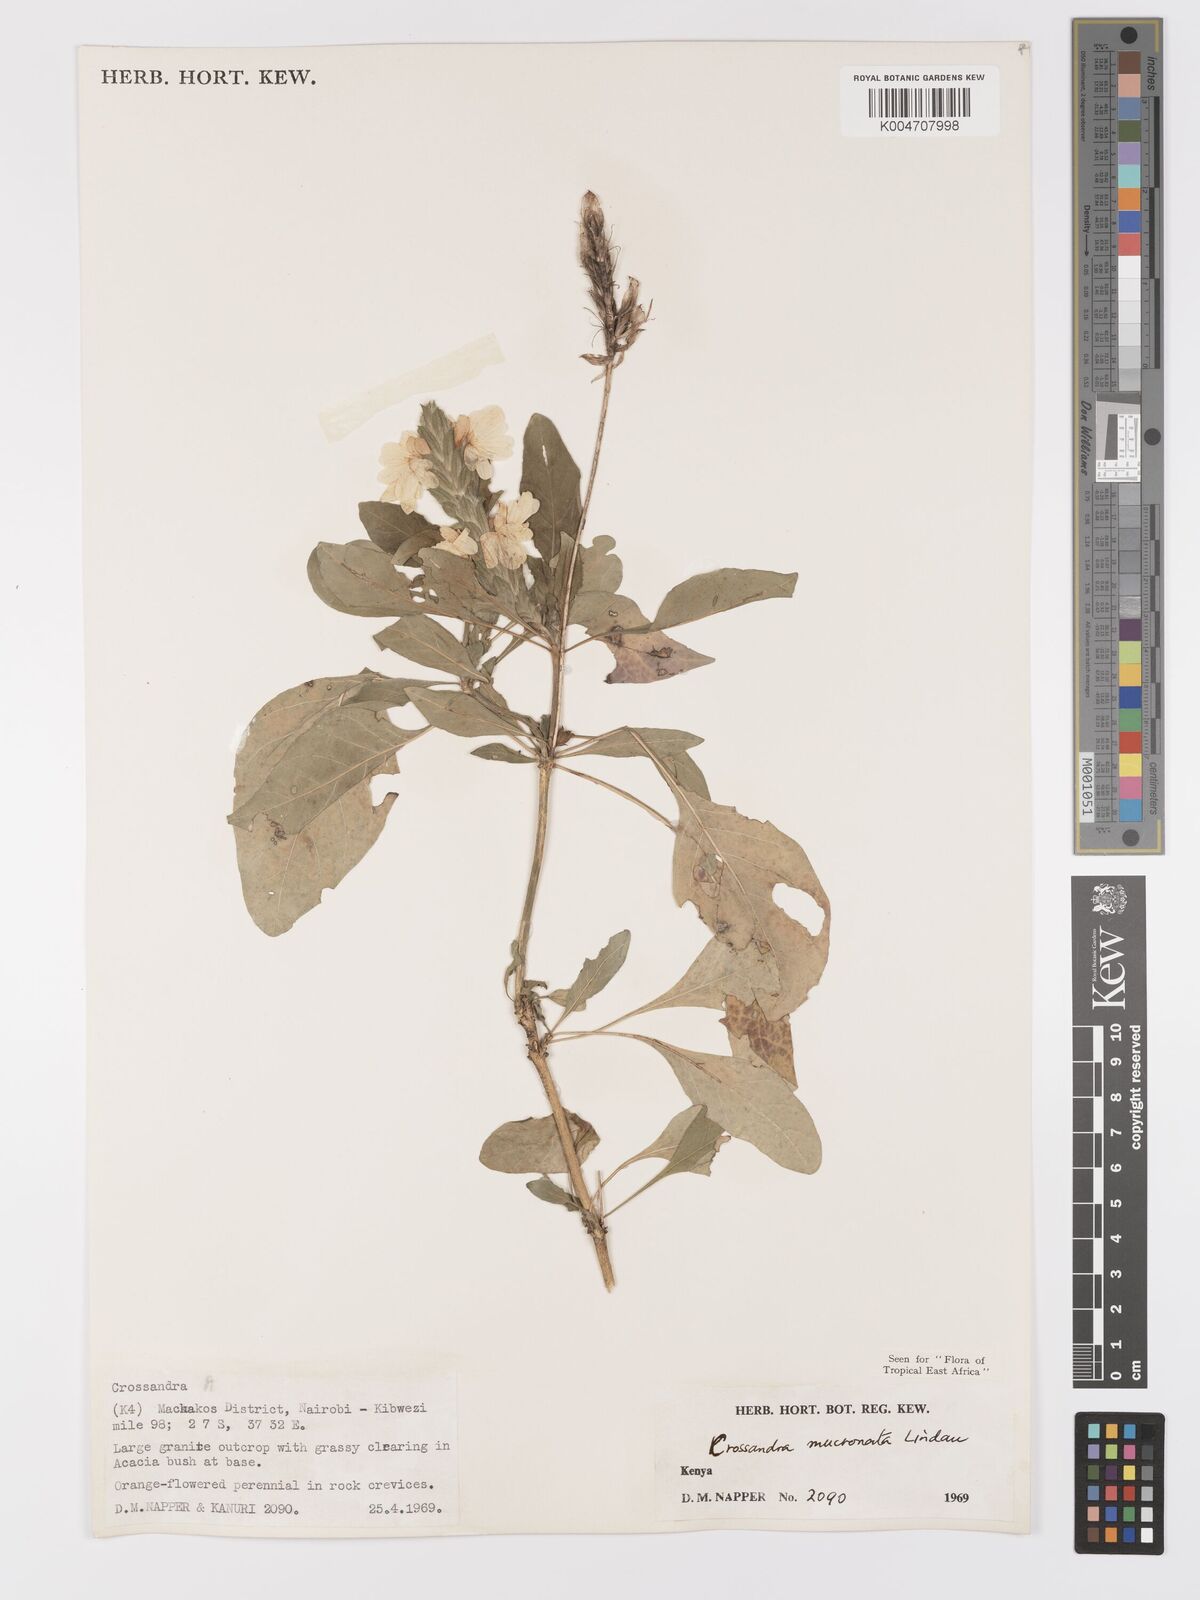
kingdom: Plantae
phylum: Tracheophyta
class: Magnoliopsida
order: Lamiales
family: Acanthaceae
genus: Crossandra
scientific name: Crossandra mucronata
